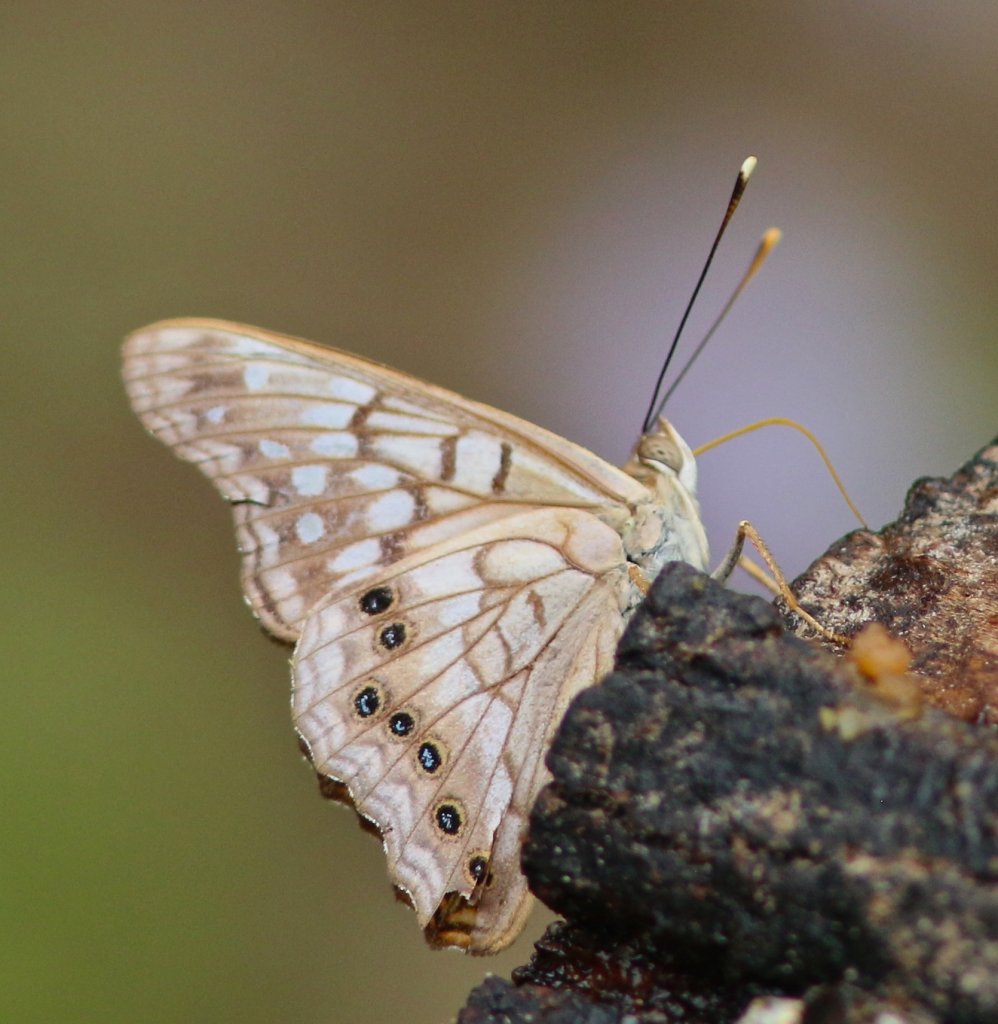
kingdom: Animalia
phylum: Arthropoda
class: Insecta
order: Lepidoptera
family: Nymphalidae
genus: Asterocampa
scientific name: Asterocampa clyton
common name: Tawny Emperor
